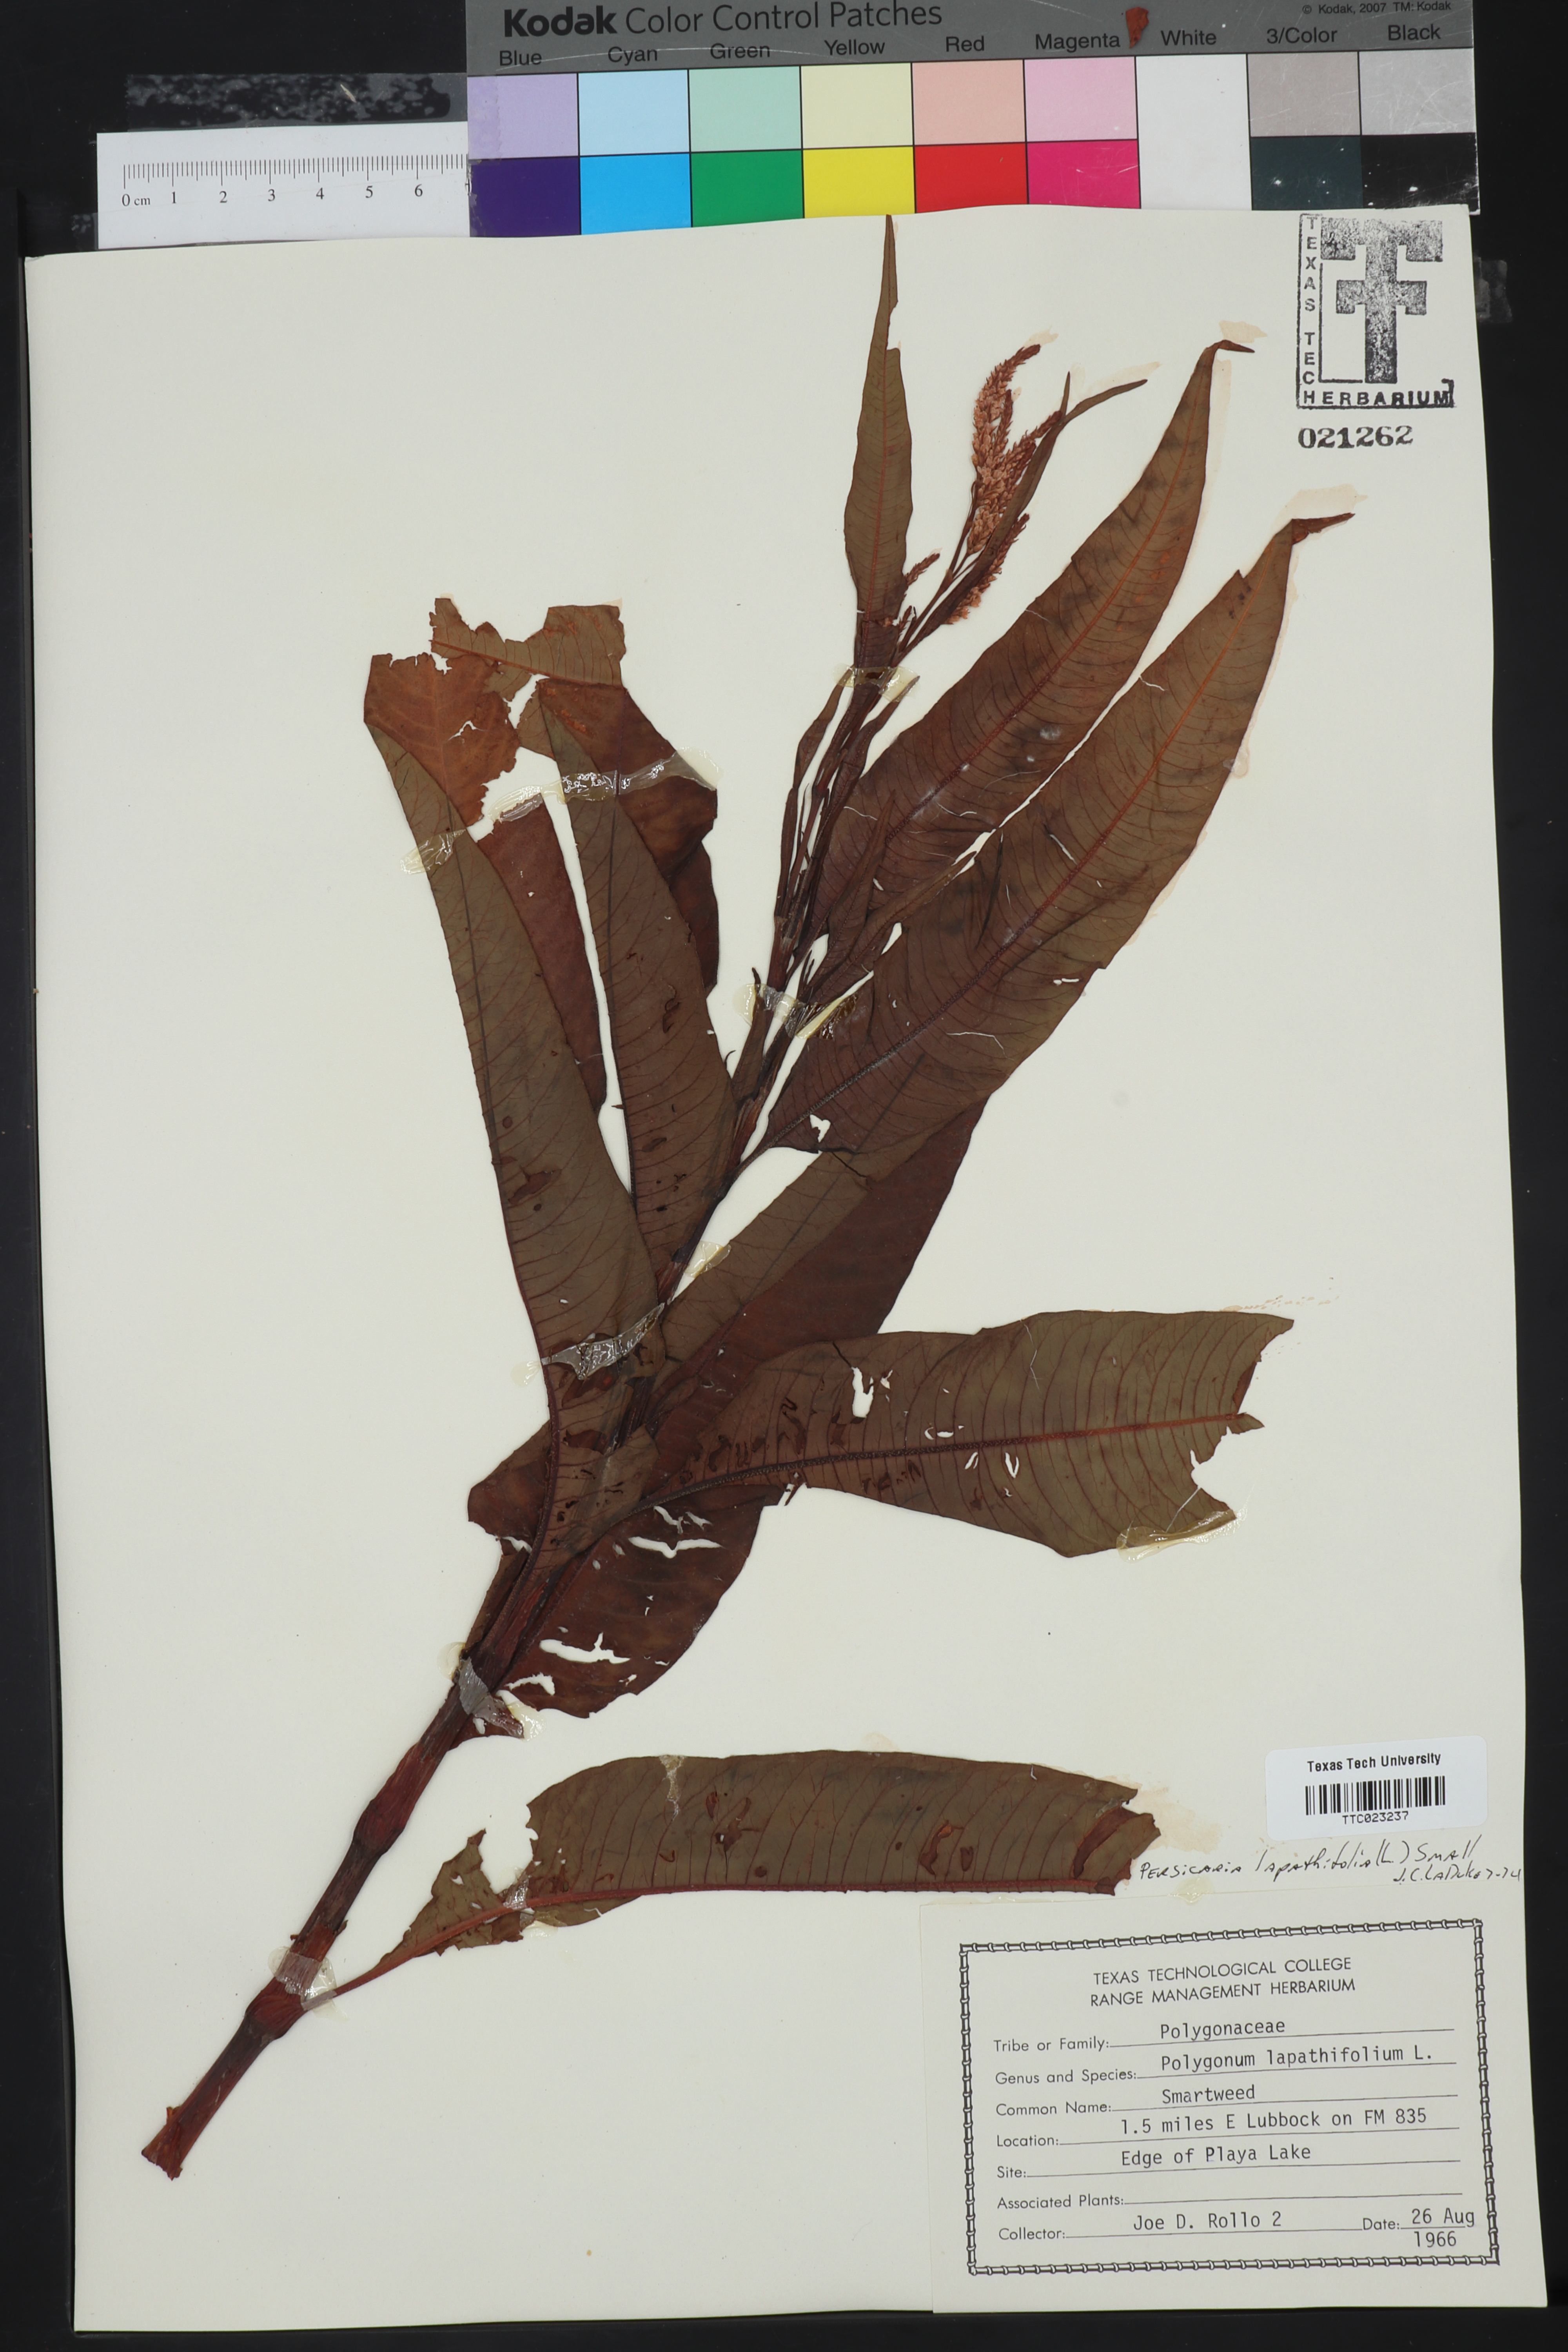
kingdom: Plantae
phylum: Tracheophyta
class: Magnoliopsida
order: Caryophyllales
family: Polygonaceae
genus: Persicaria
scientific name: Persicaria lapathifolia
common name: Curlytop knotweed
